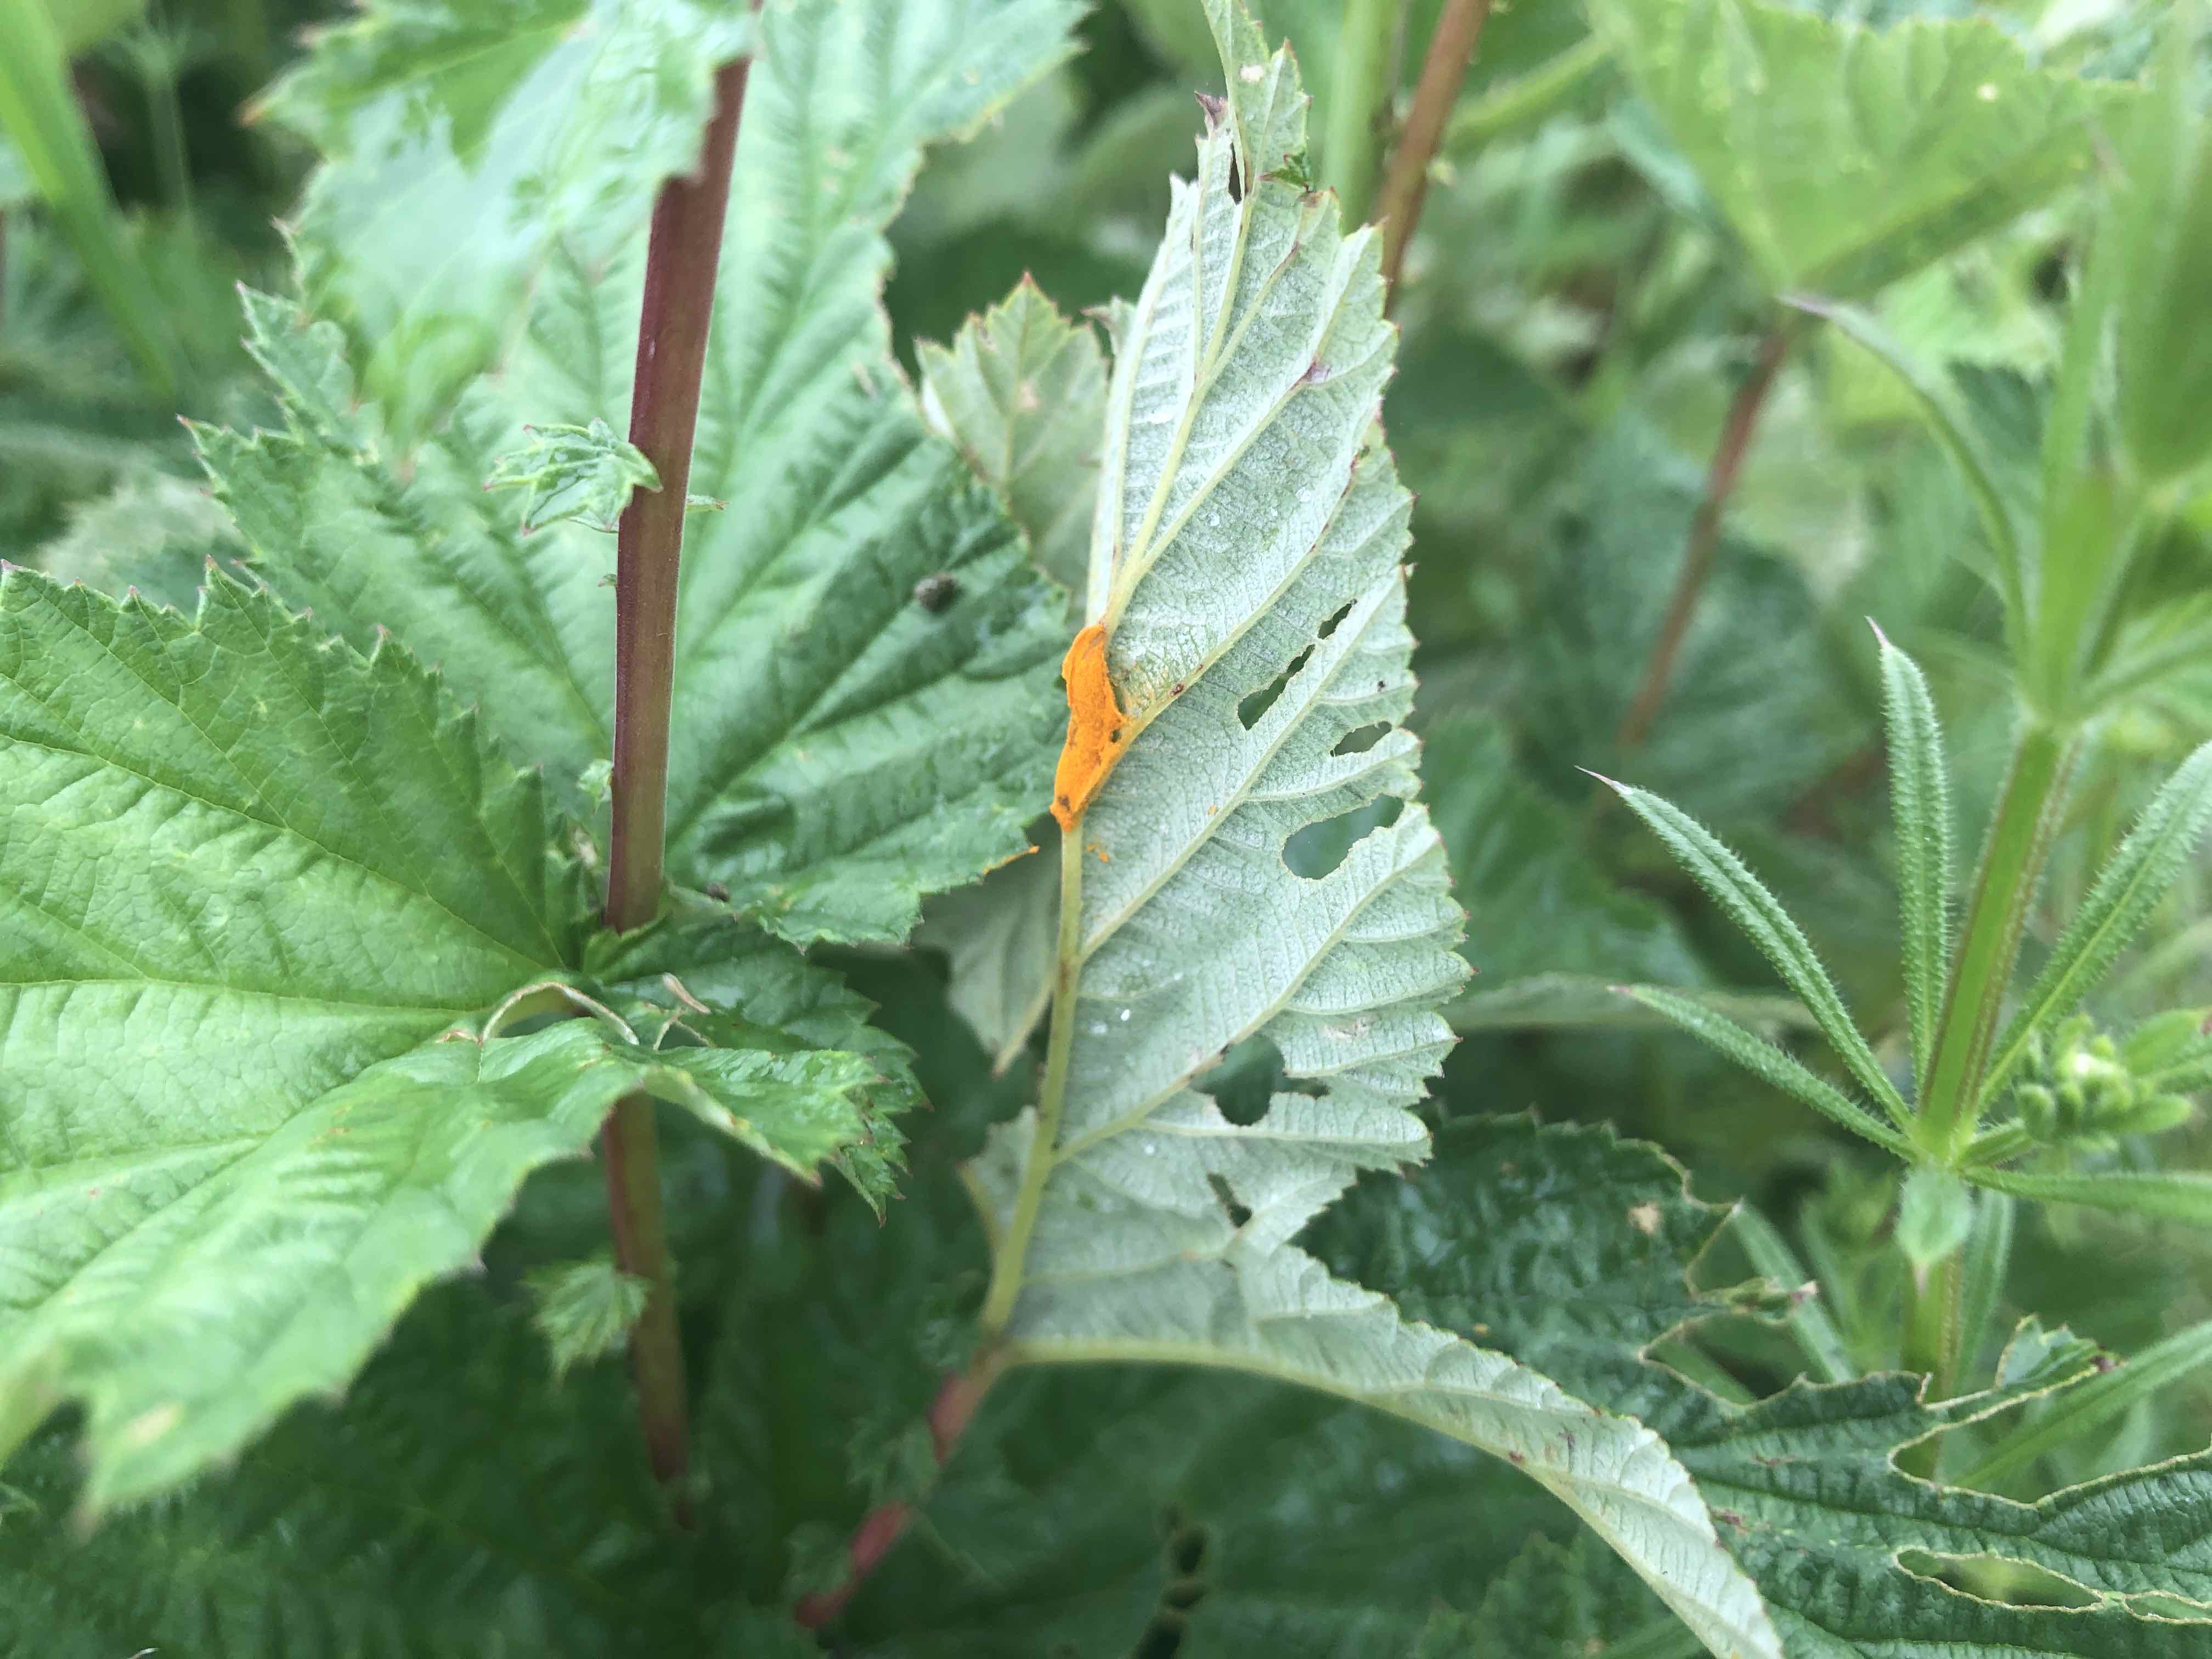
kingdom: Fungi
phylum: Basidiomycota
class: Pucciniomycetes
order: Pucciniales
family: Raveneliaceae
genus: Triphragmium
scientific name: Triphragmium ulmariae
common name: almindelig mjødurtrust
